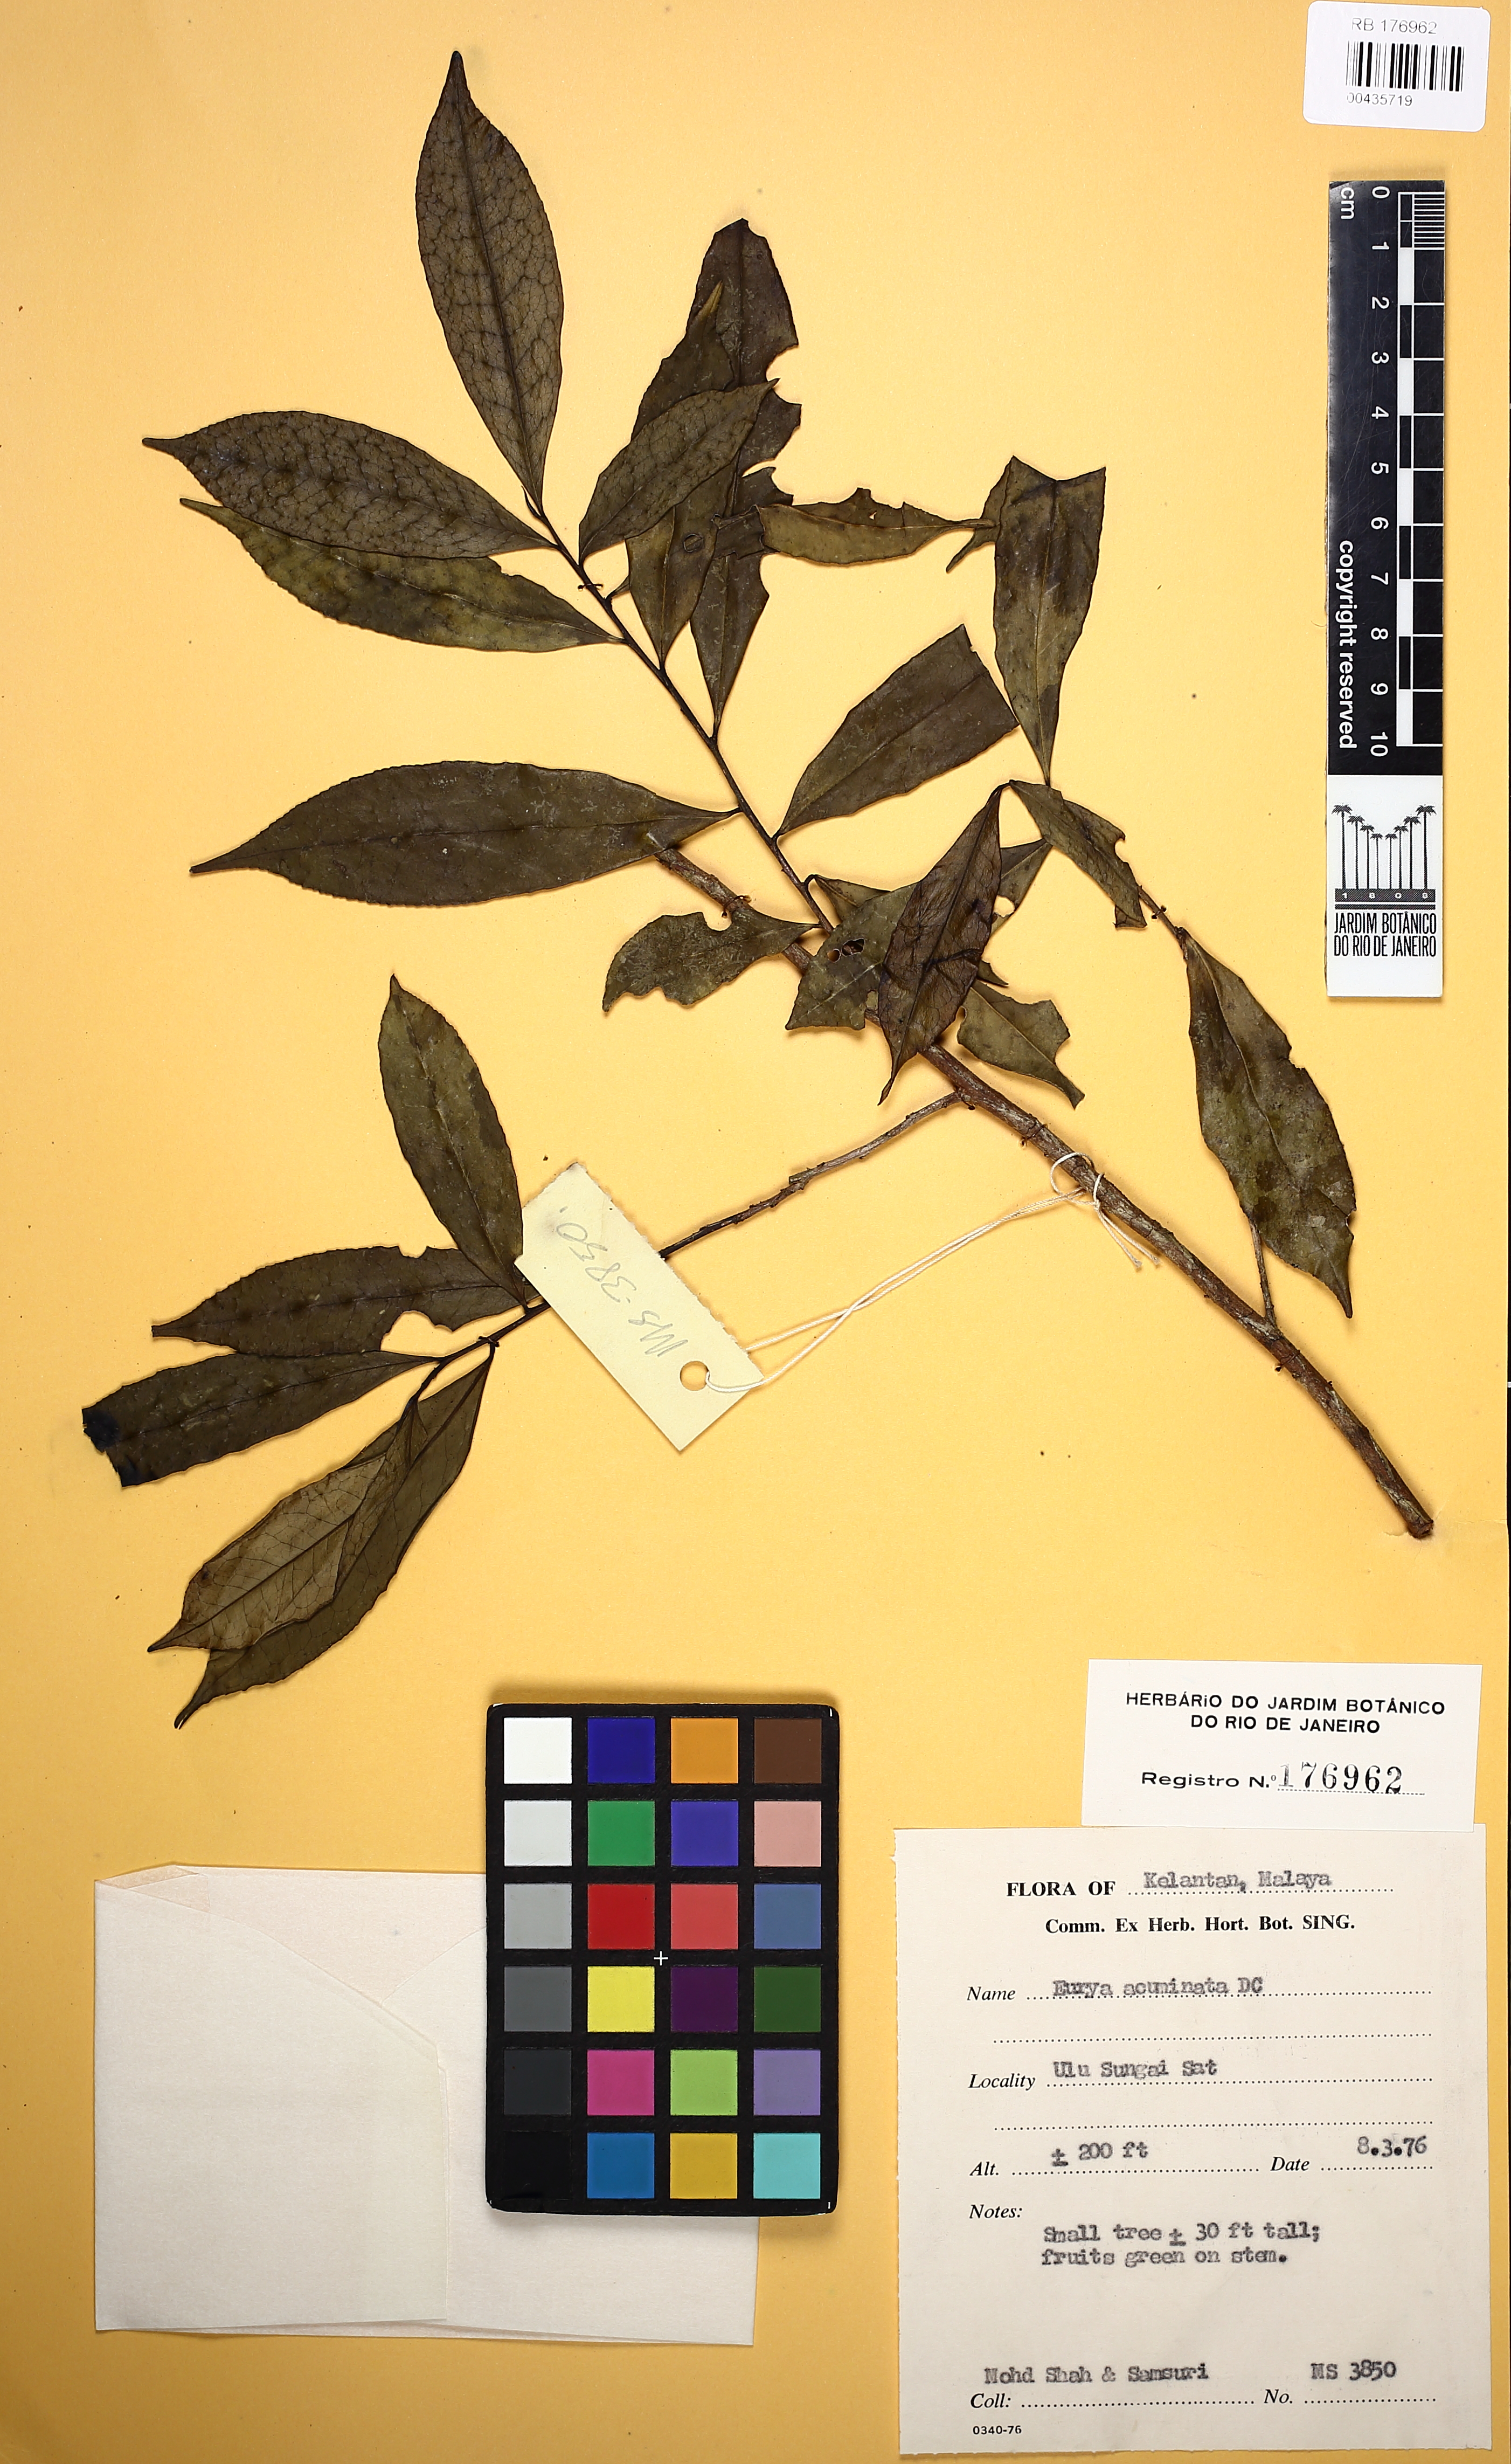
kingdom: Plantae
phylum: Tracheophyta
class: Magnoliopsida
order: Ericales
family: Pentaphylacaceae
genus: Eurya
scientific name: Eurya acuminata
